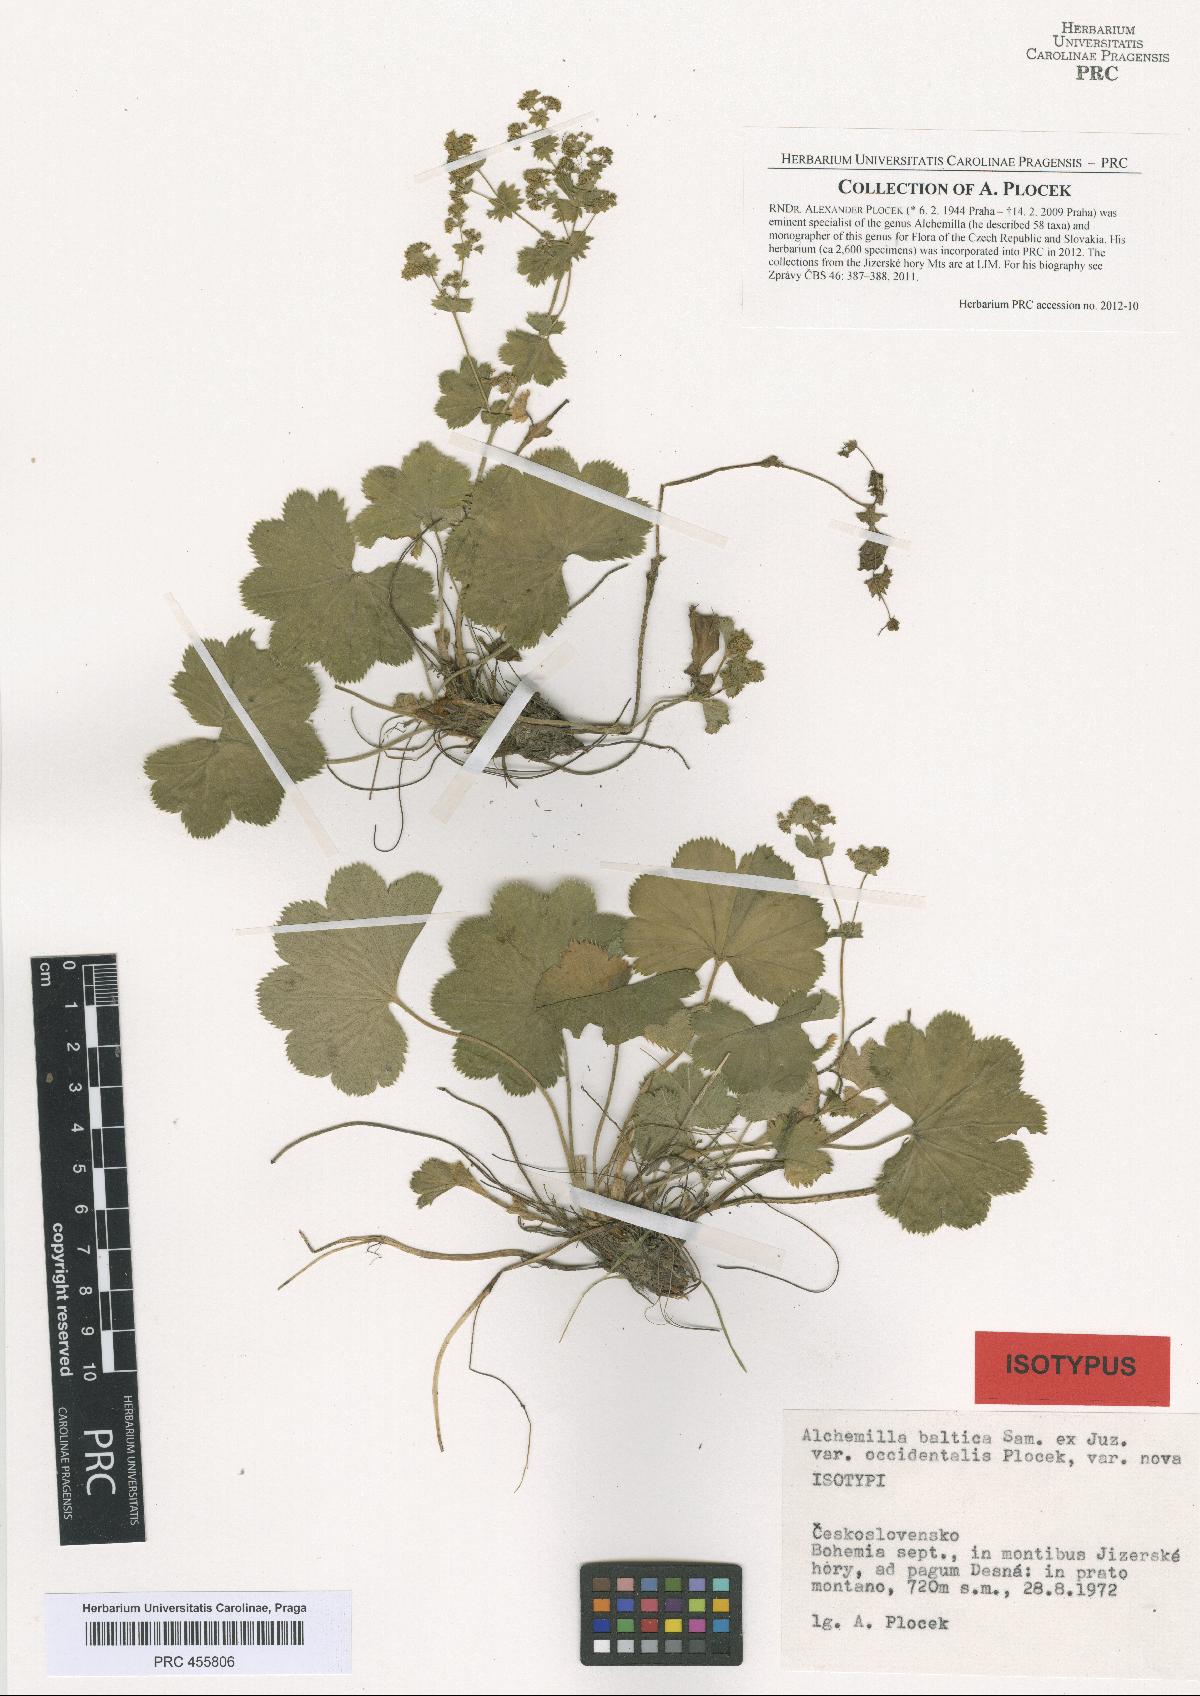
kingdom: Plantae
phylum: Tracheophyta
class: Magnoliopsida
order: Rosales
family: Rosaceae
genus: Alchemilla
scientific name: Alchemilla corcontica
